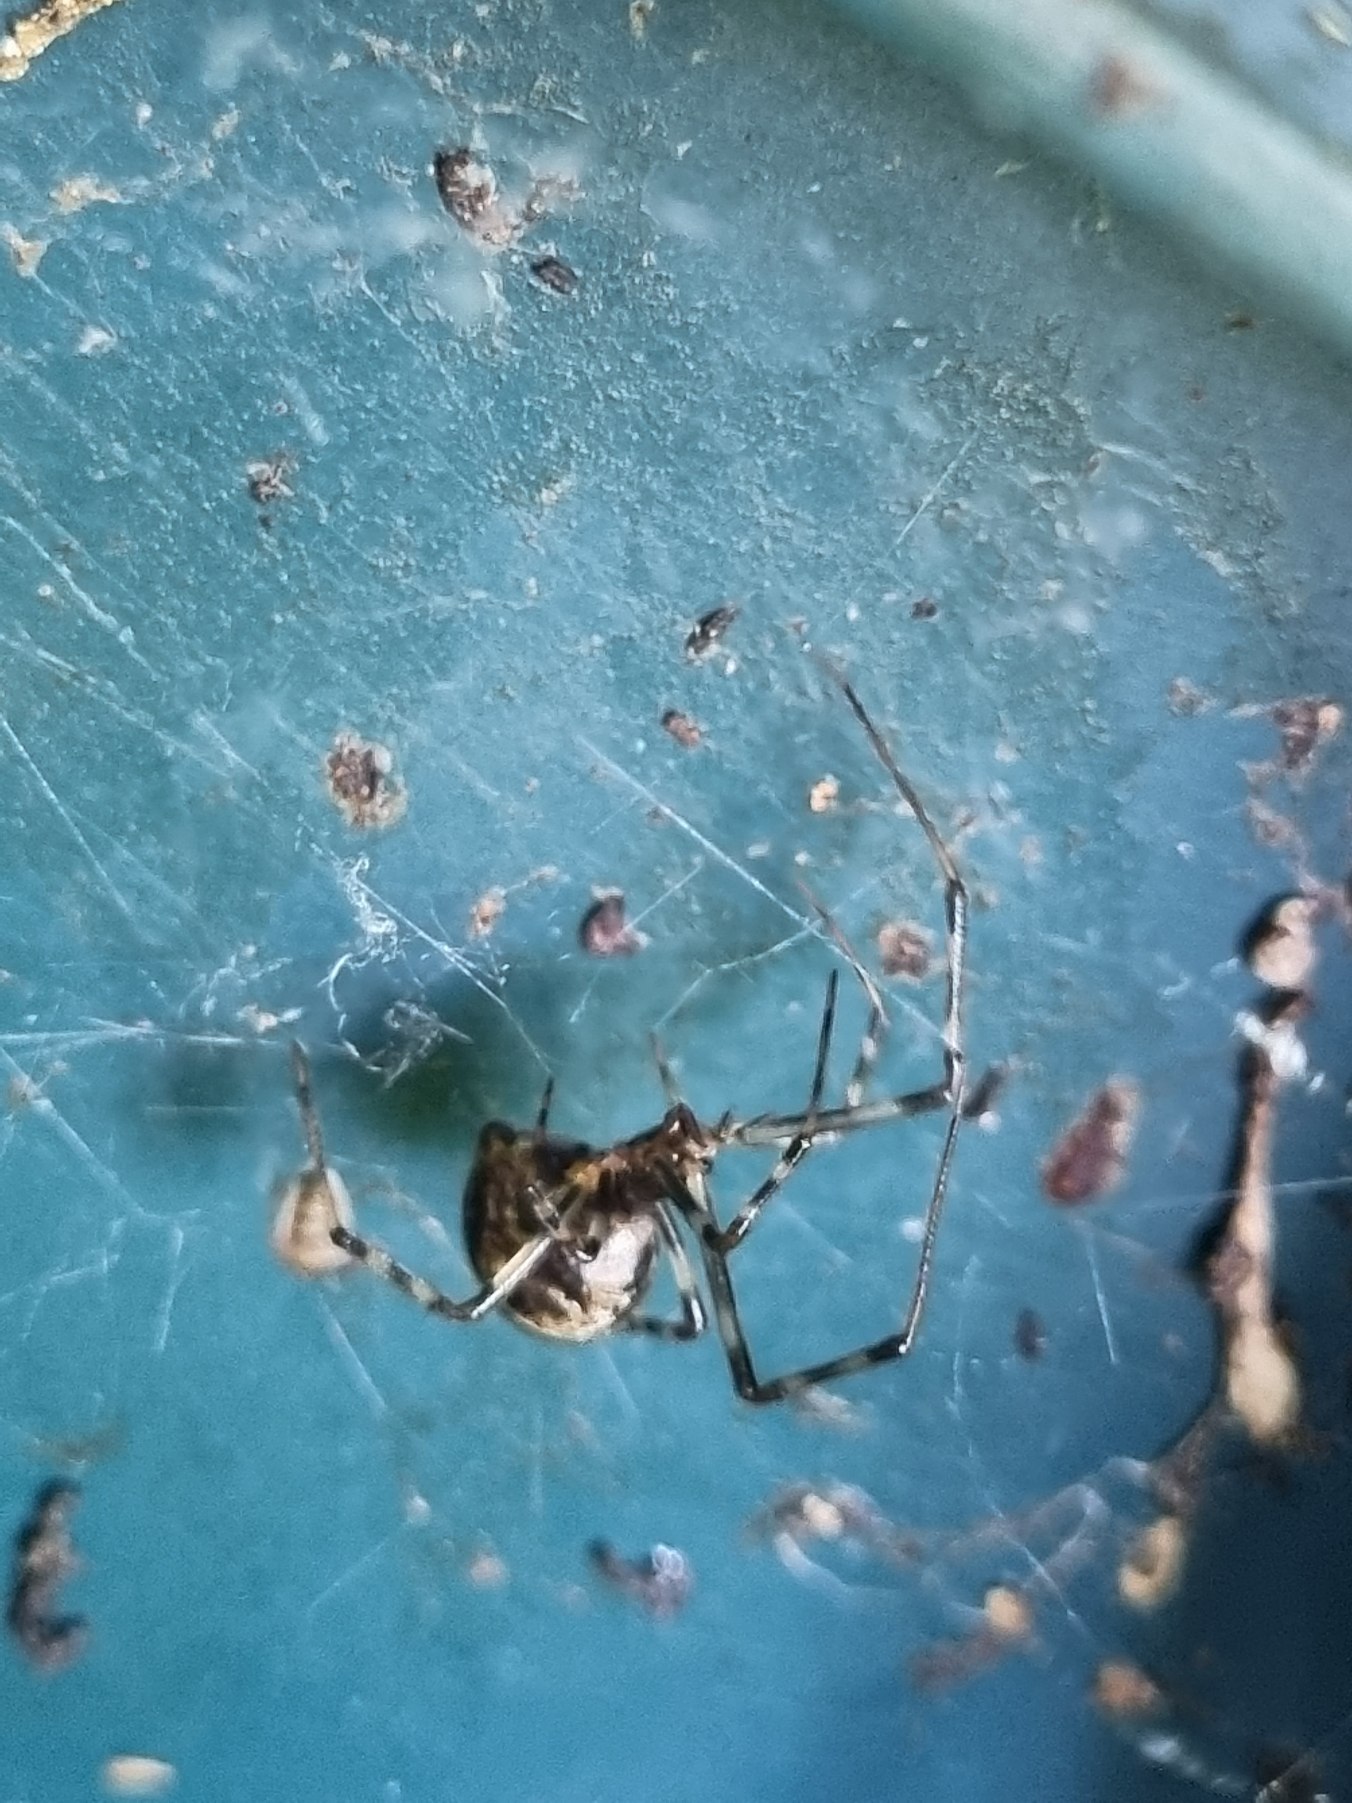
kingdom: Animalia
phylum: Arthropoda
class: Arachnida
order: Araneae
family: Theridiidae
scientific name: Theridiidae
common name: Kugleedderkopper
